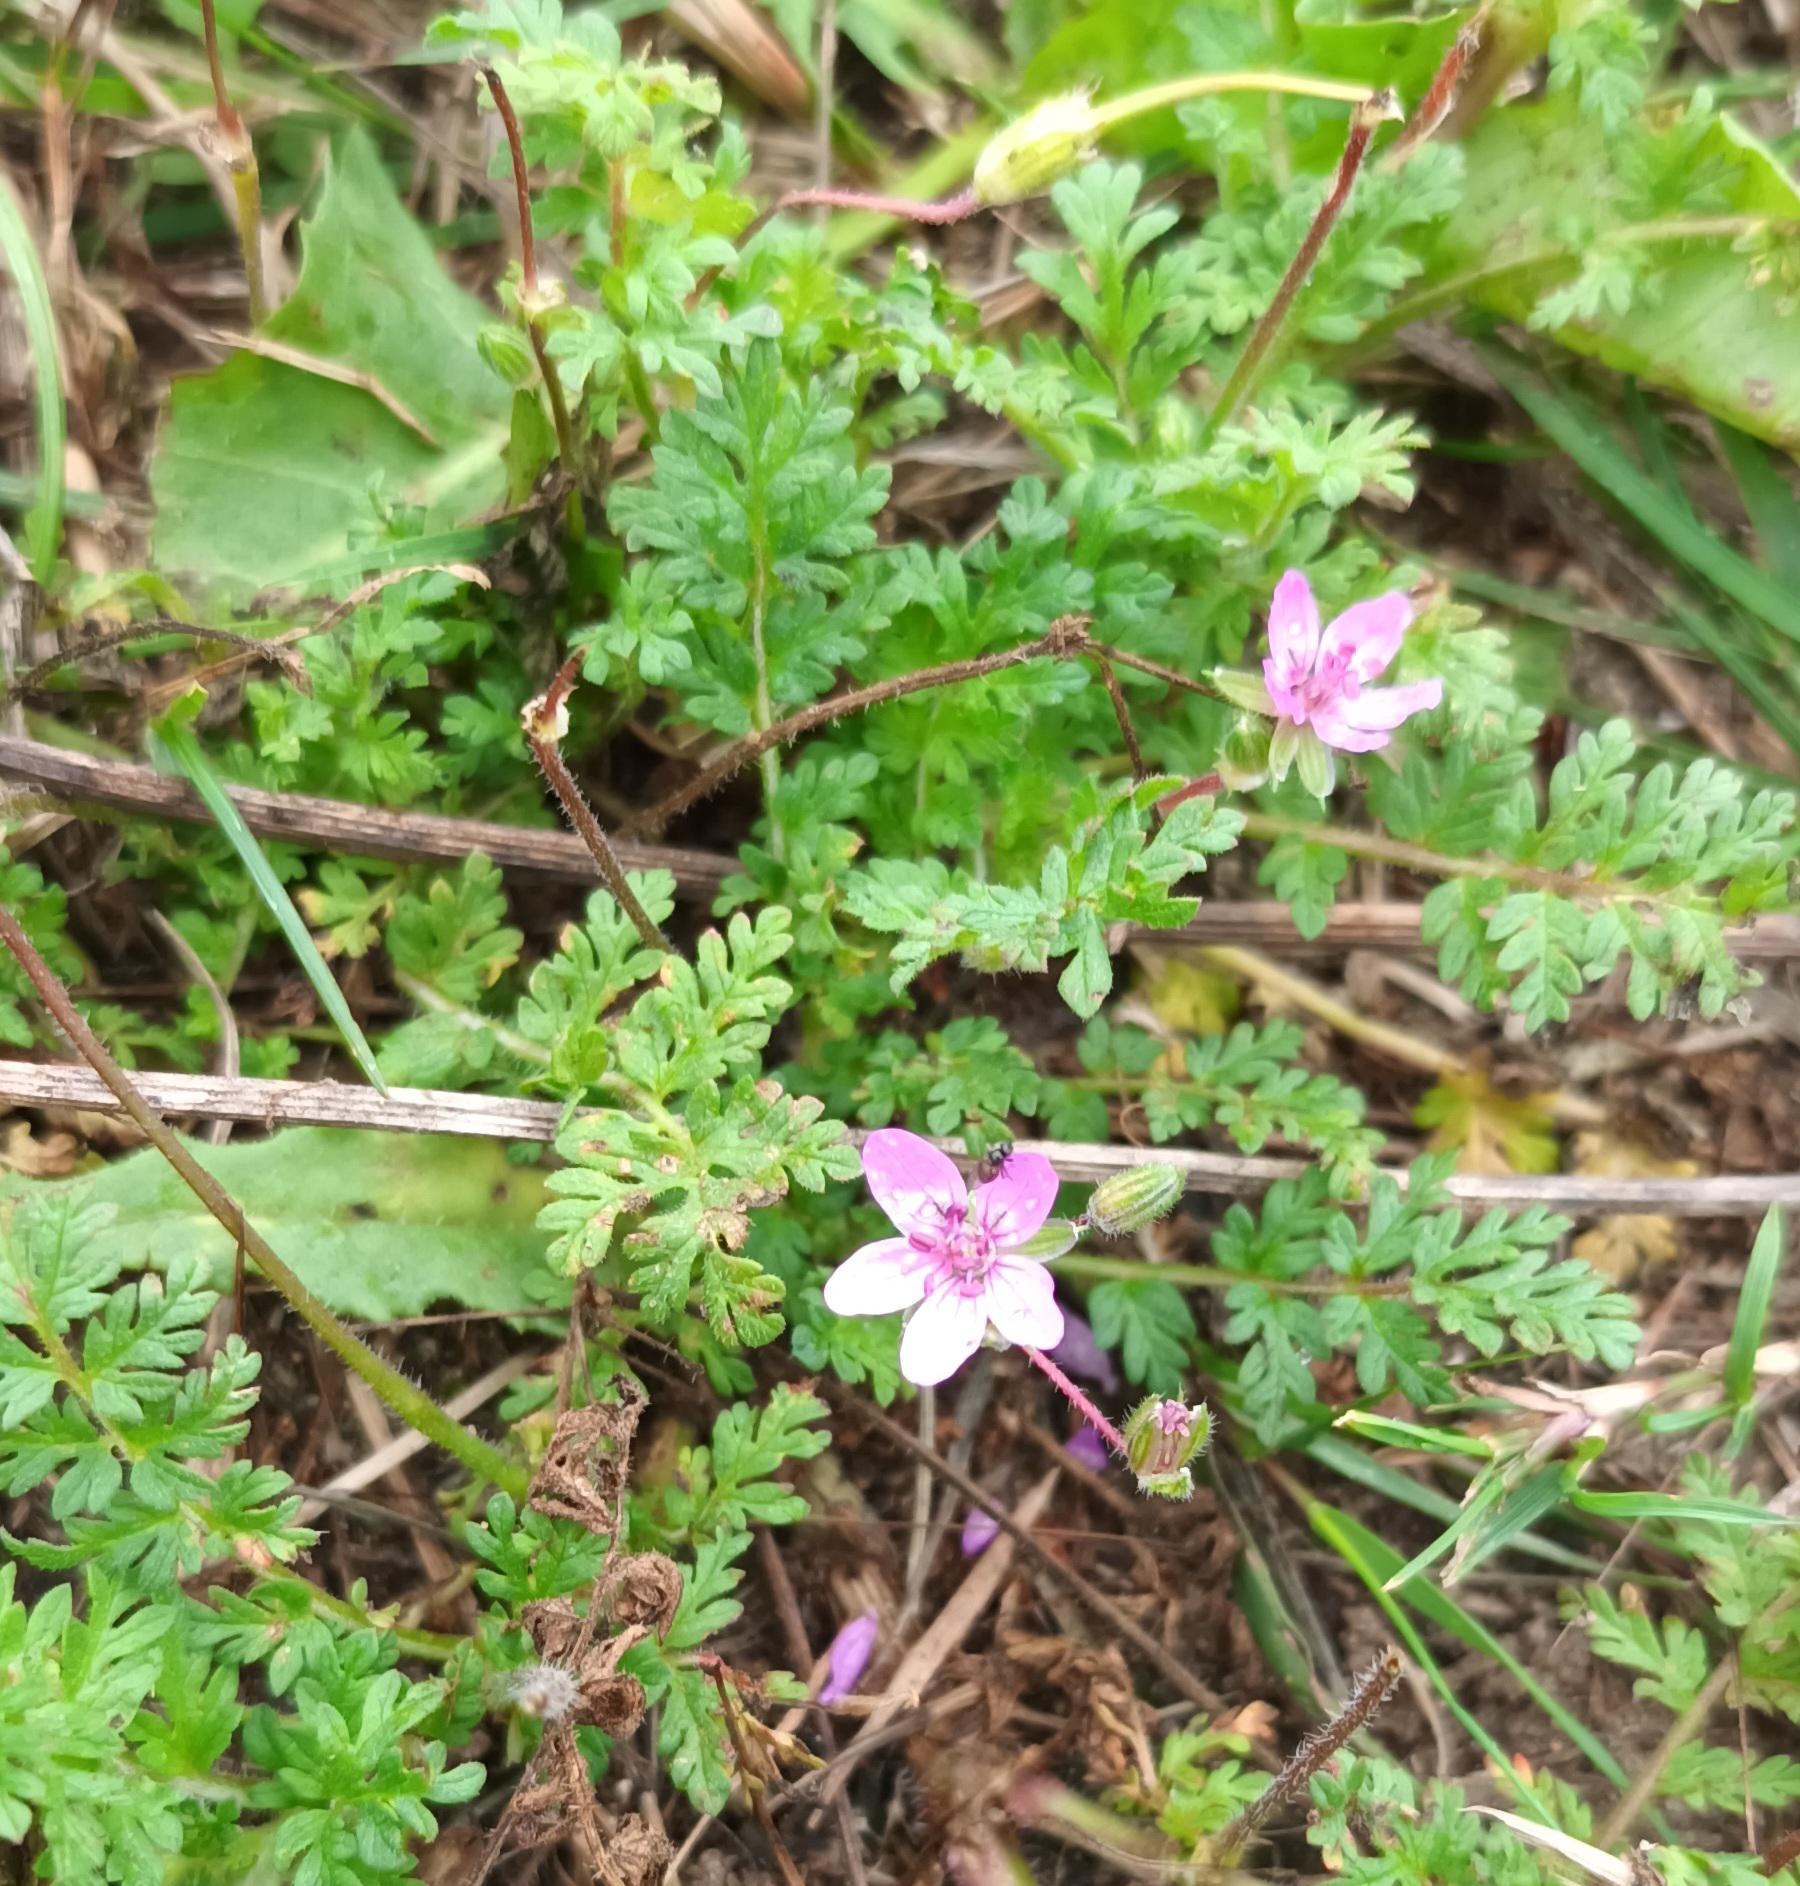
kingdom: Plantae
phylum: Tracheophyta
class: Magnoliopsida
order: Geraniales
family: Geraniaceae
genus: Erodium
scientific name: Erodium cicutarium
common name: Hejrenæb
